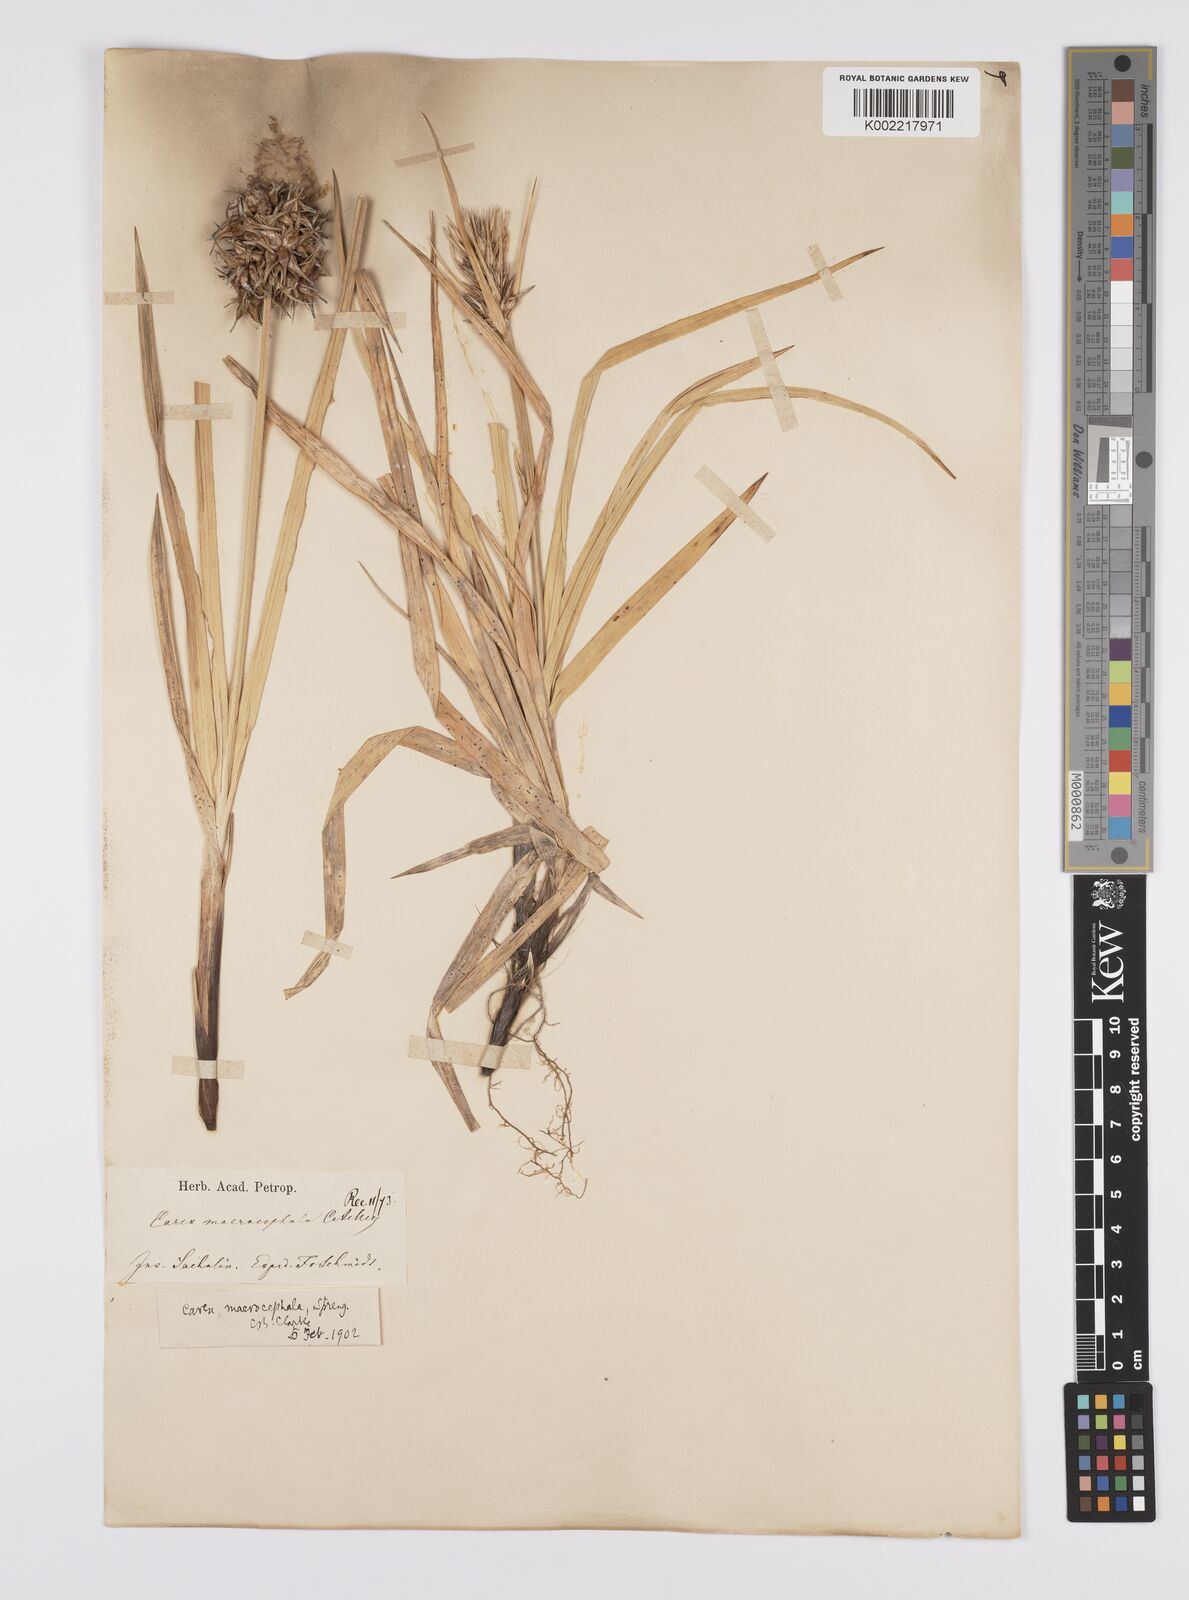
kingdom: Plantae
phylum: Tracheophyta
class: Liliopsida
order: Poales
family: Cyperaceae
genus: Carex
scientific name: Carex macrocephala
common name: Large-head sedge
